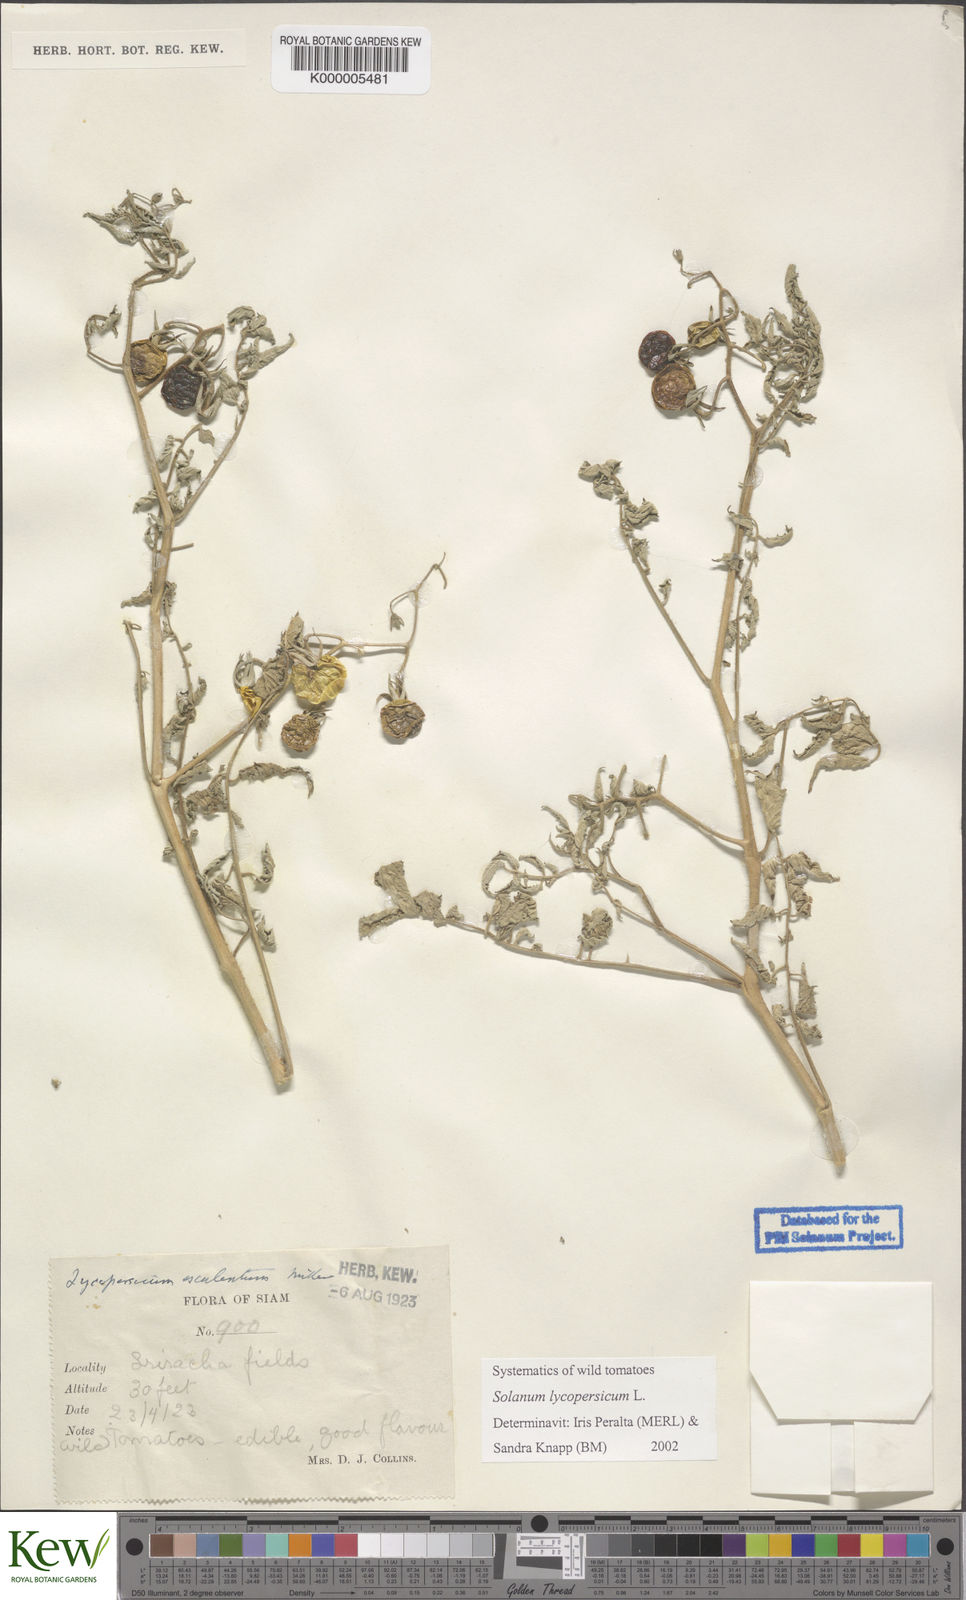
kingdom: Plantae
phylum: Tracheophyta
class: Magnoliopsida
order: Solanales
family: Solanaceae
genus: Solanum
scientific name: Solanum lycopersicum
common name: Garden tomato
